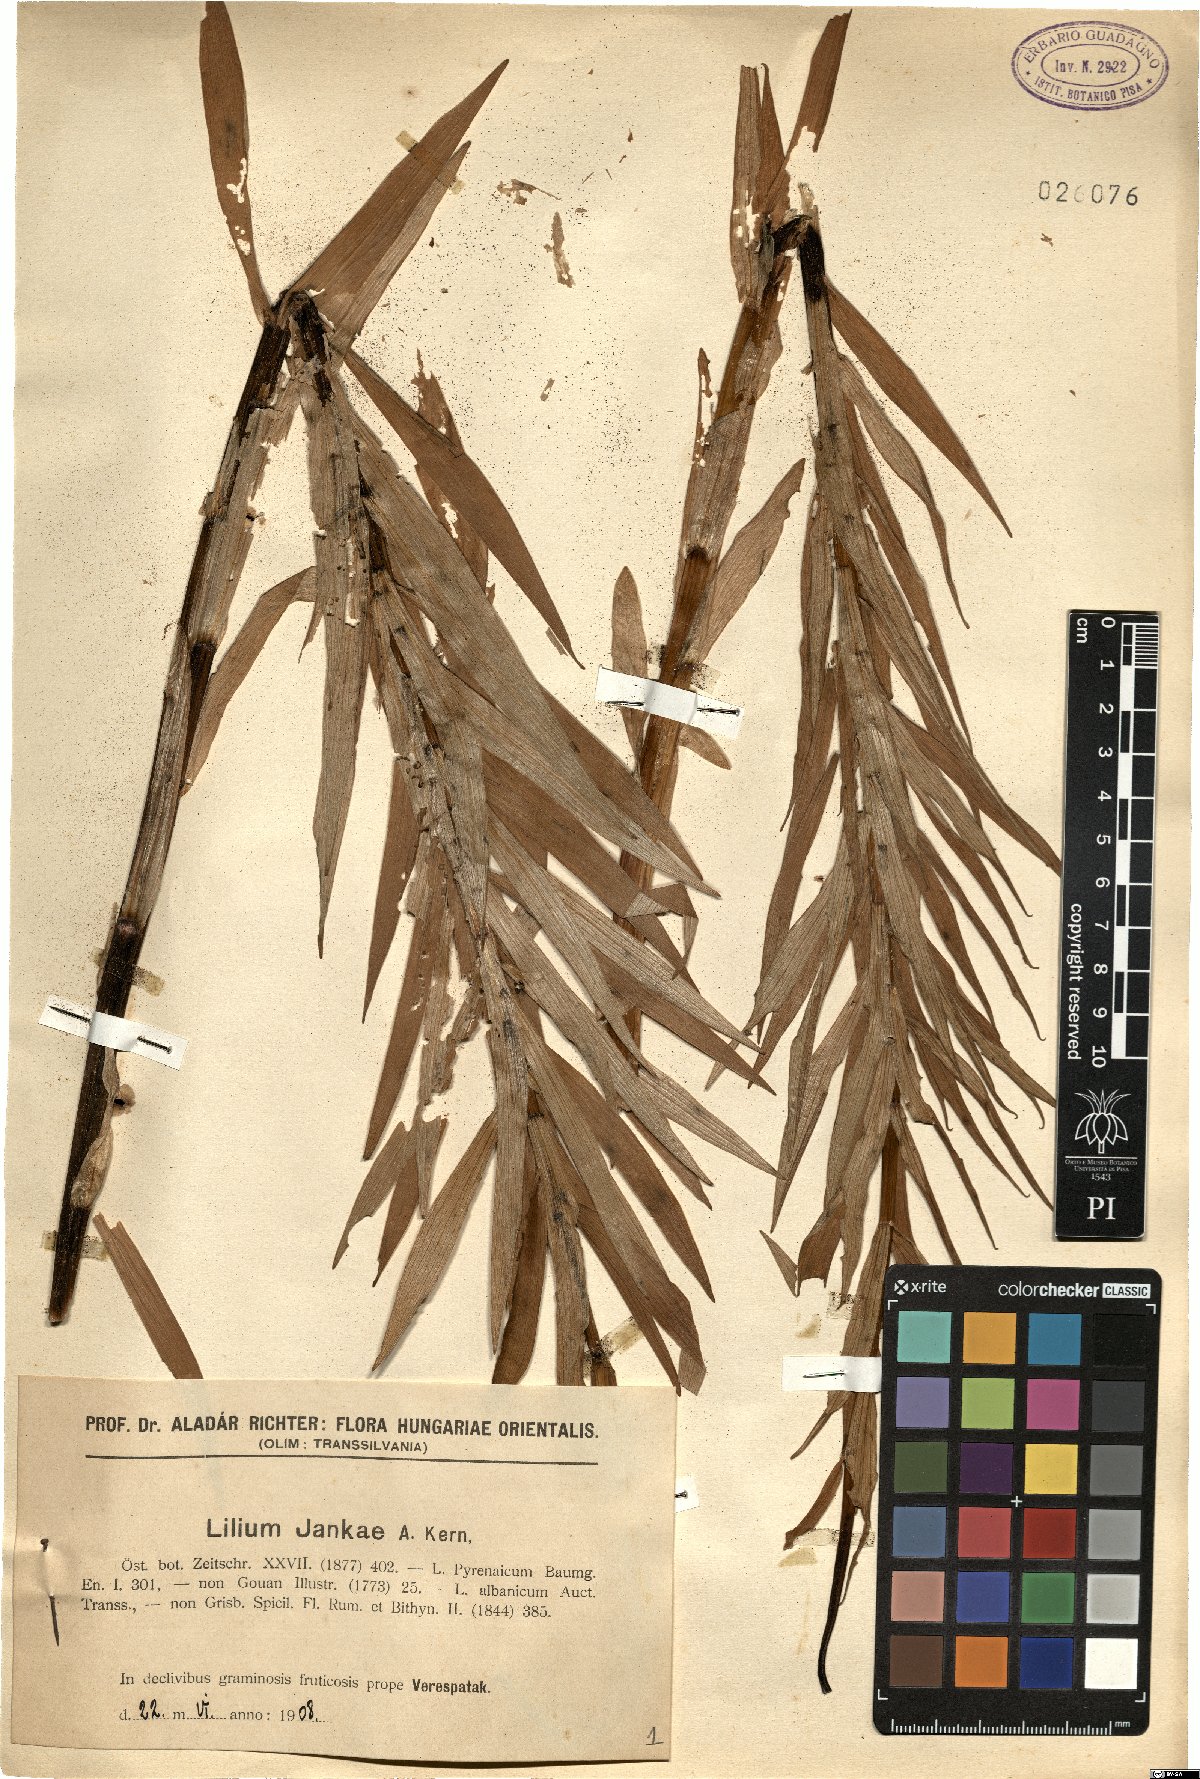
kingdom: Plantae
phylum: Tracheophyta
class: Liliopsida
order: Liliales
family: Liliaceae
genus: Lilium
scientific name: Lilium jankae
